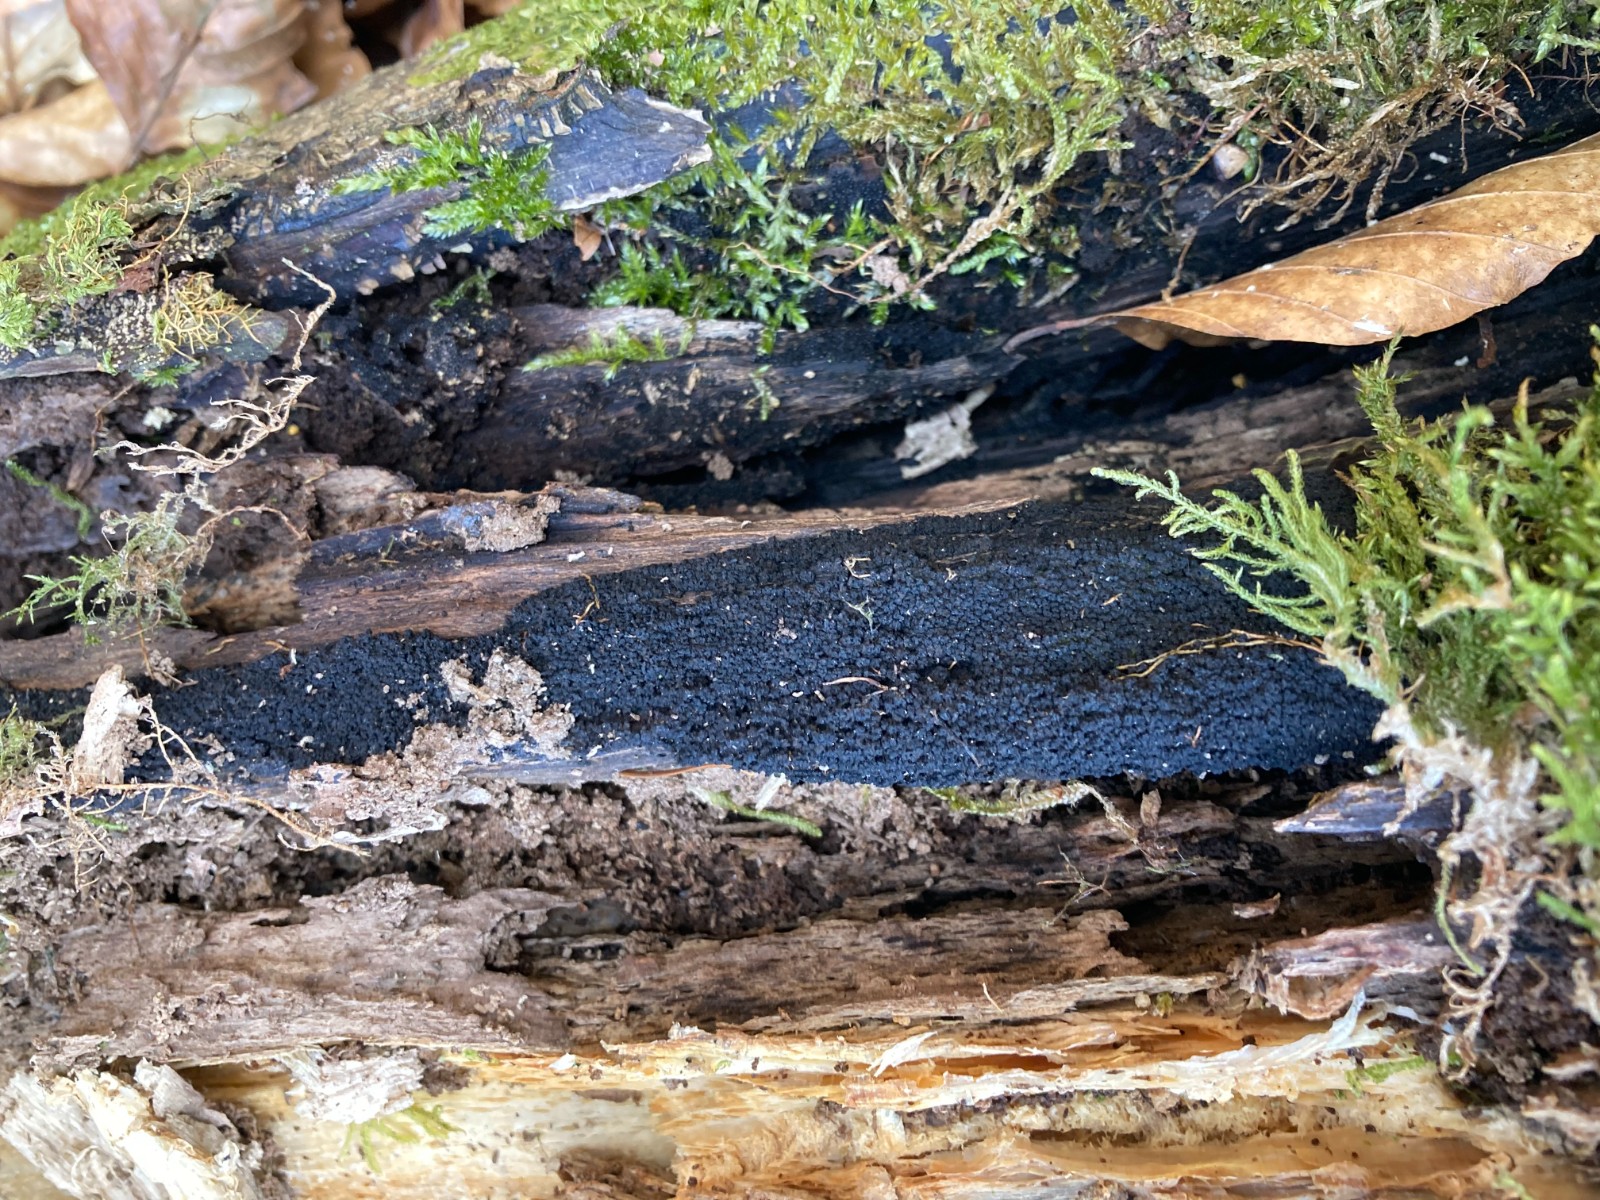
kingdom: Fungi
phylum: Ascomycota
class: Sordariomycetes
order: Xylariales
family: Diatrypaceae
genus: Eutypa
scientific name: Eutypa spinosa
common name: grov kulskorpe
